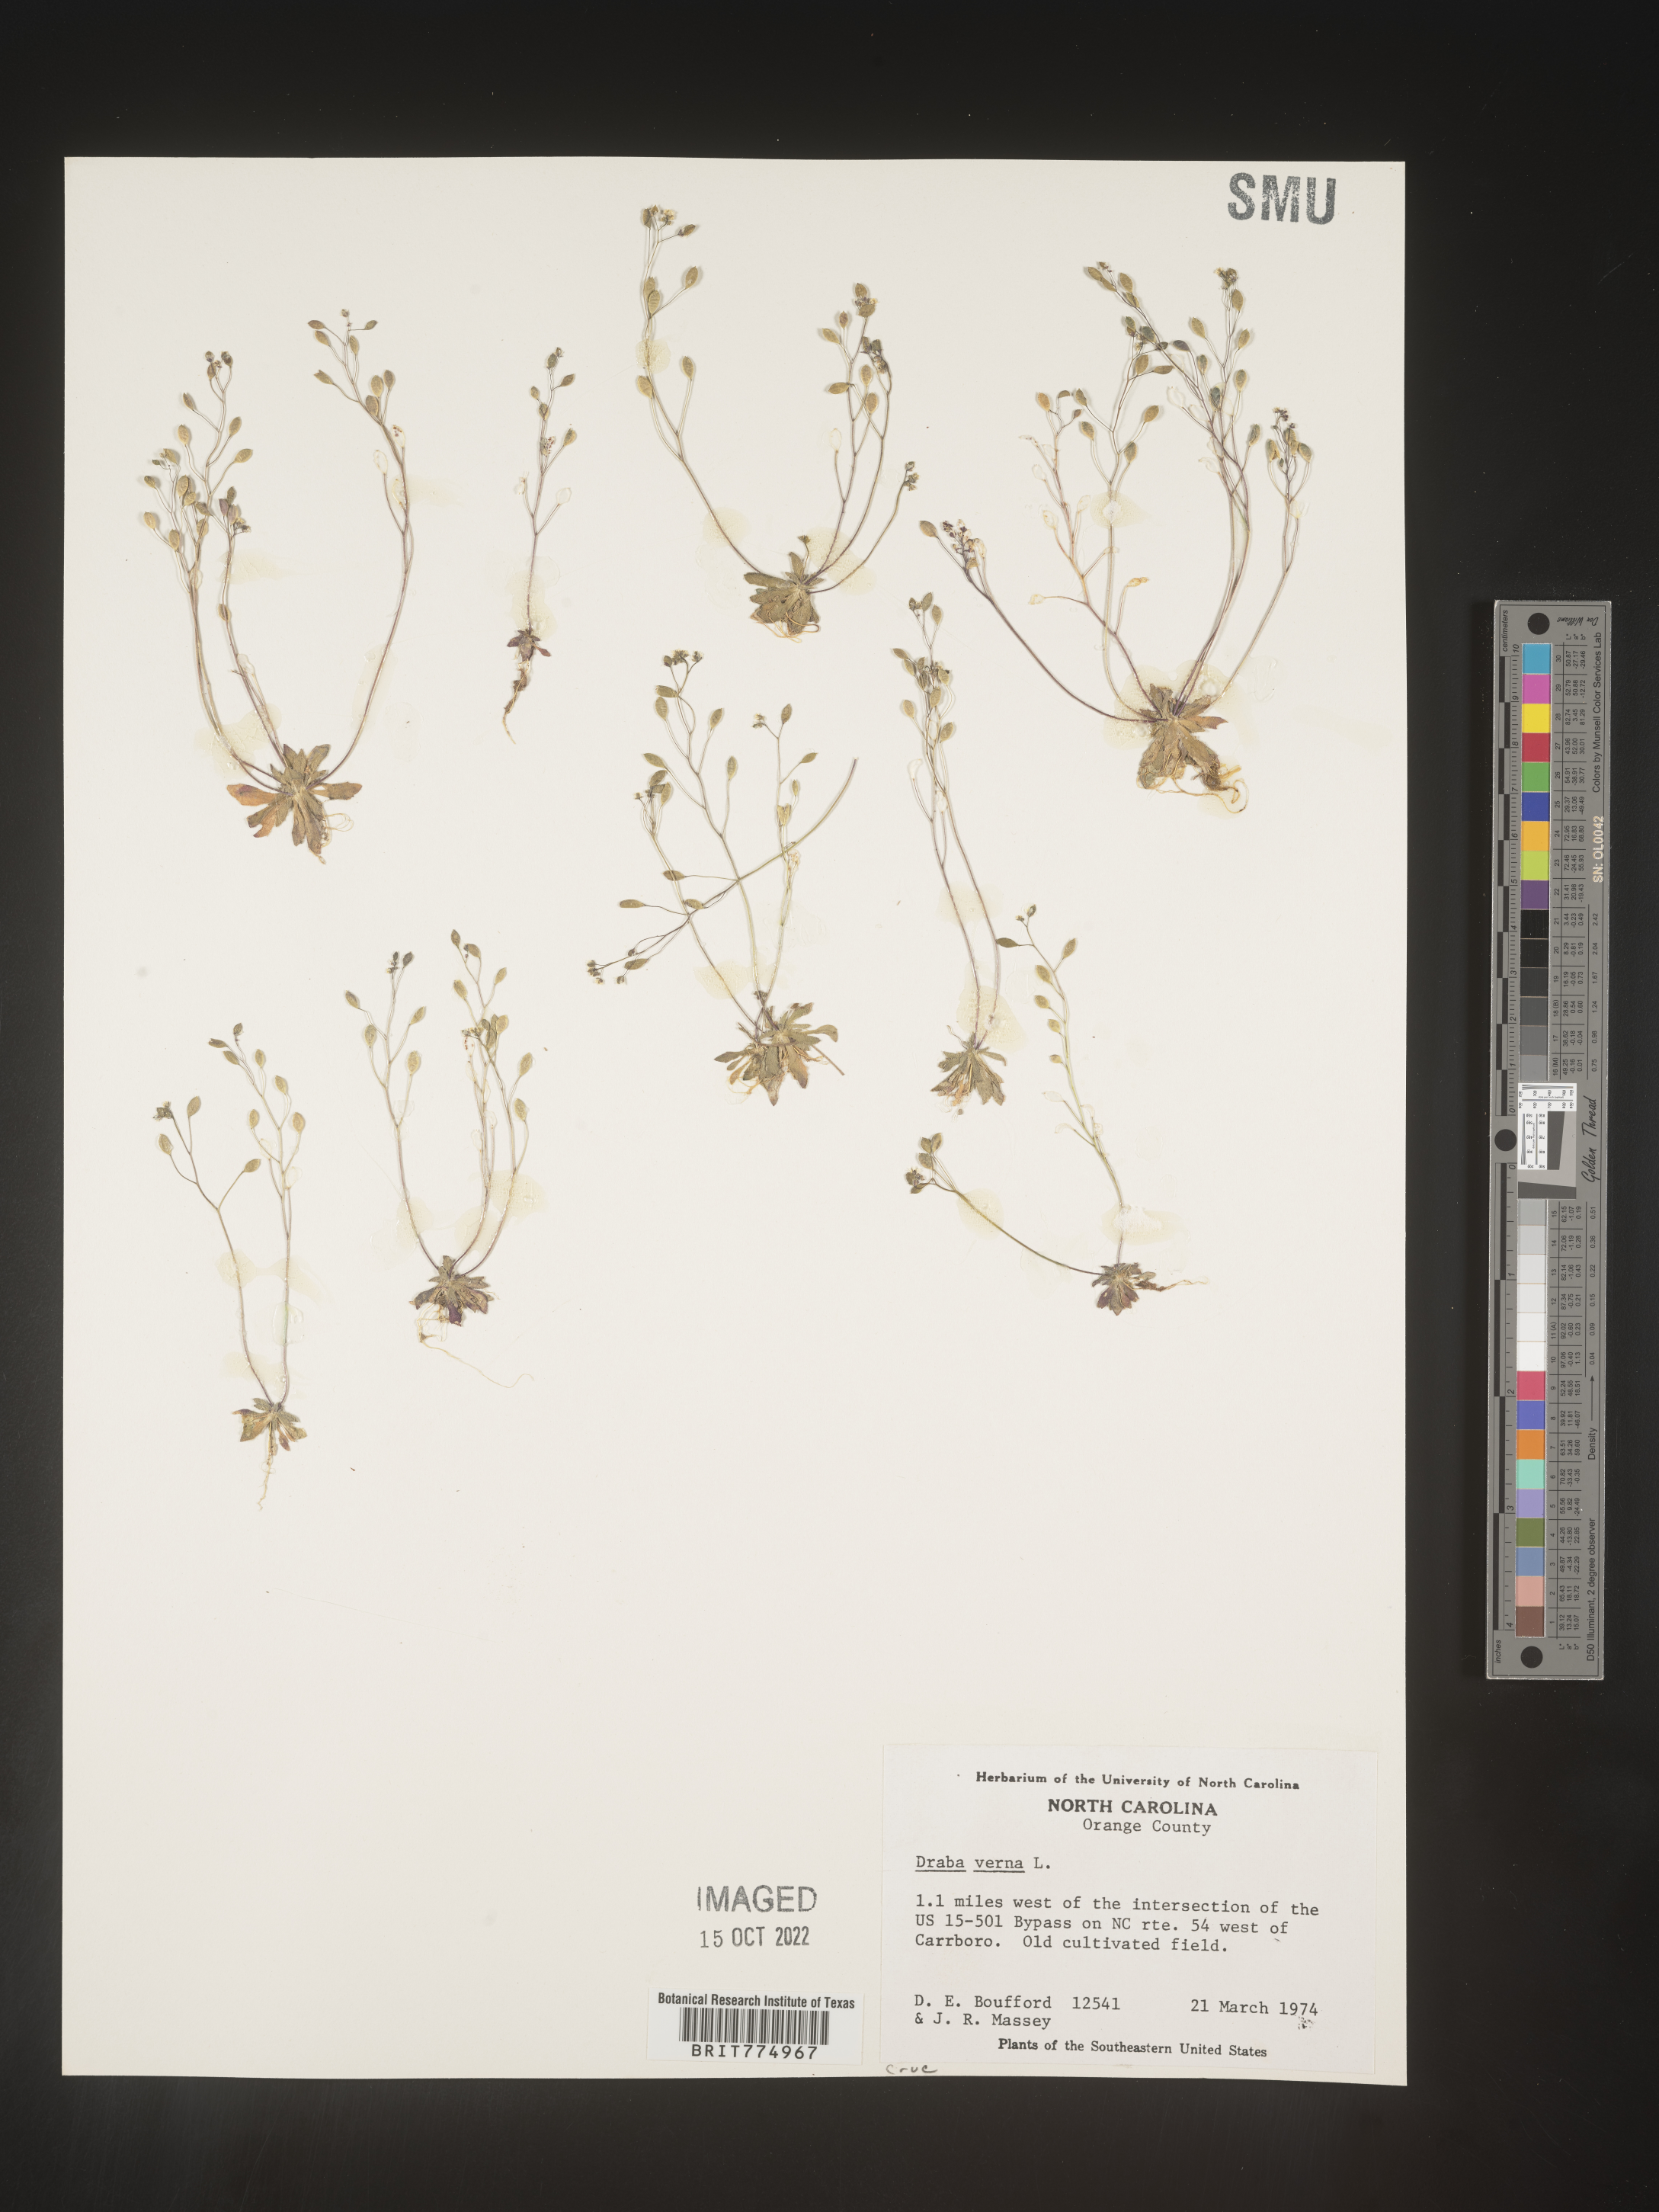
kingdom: Plantae
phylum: Tracheophyta
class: Magnoliopsida
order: Brassicales
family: Brassicaceae
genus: Draba
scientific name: Draba verna
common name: Spring draba
